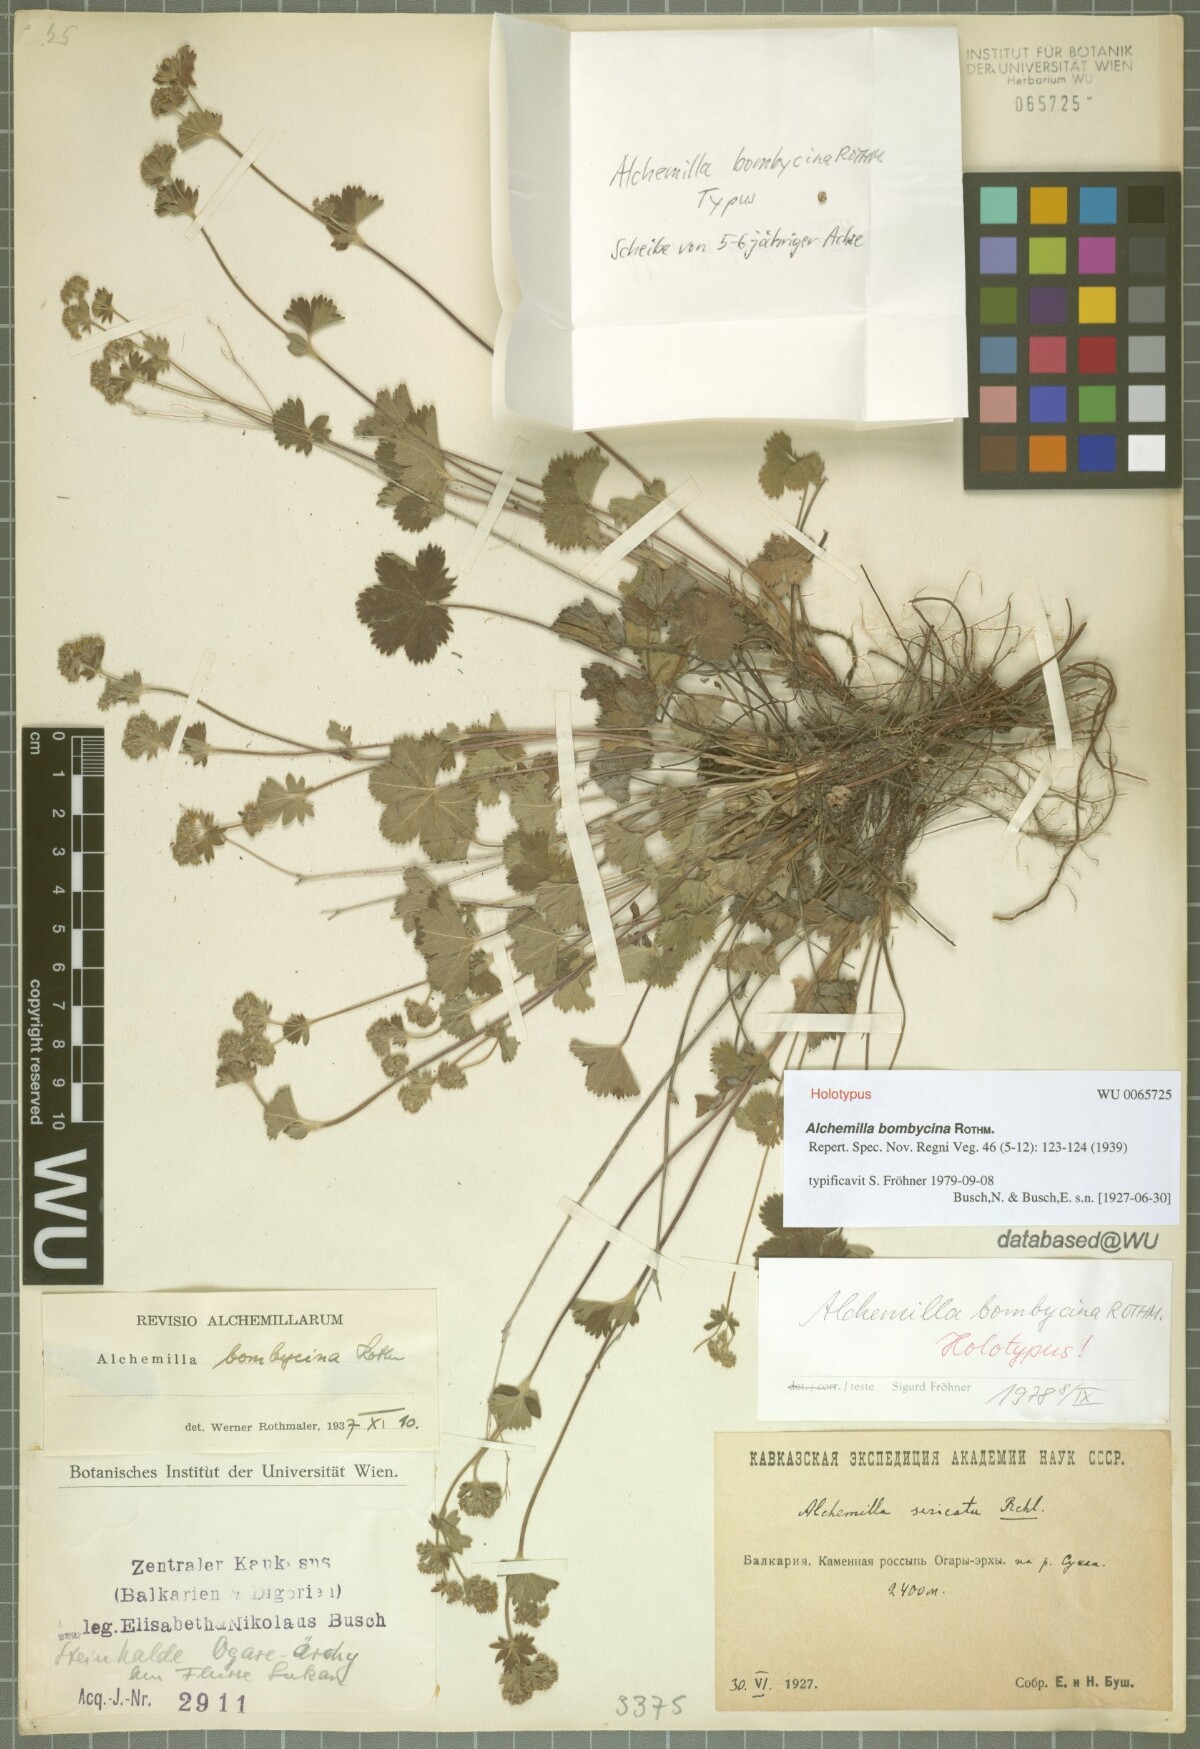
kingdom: Plantae
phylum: Tracheophyta
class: Magnoliopsida
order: Rosales
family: Rosaceae
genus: Alchemilla
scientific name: Alchemilla bombycina
